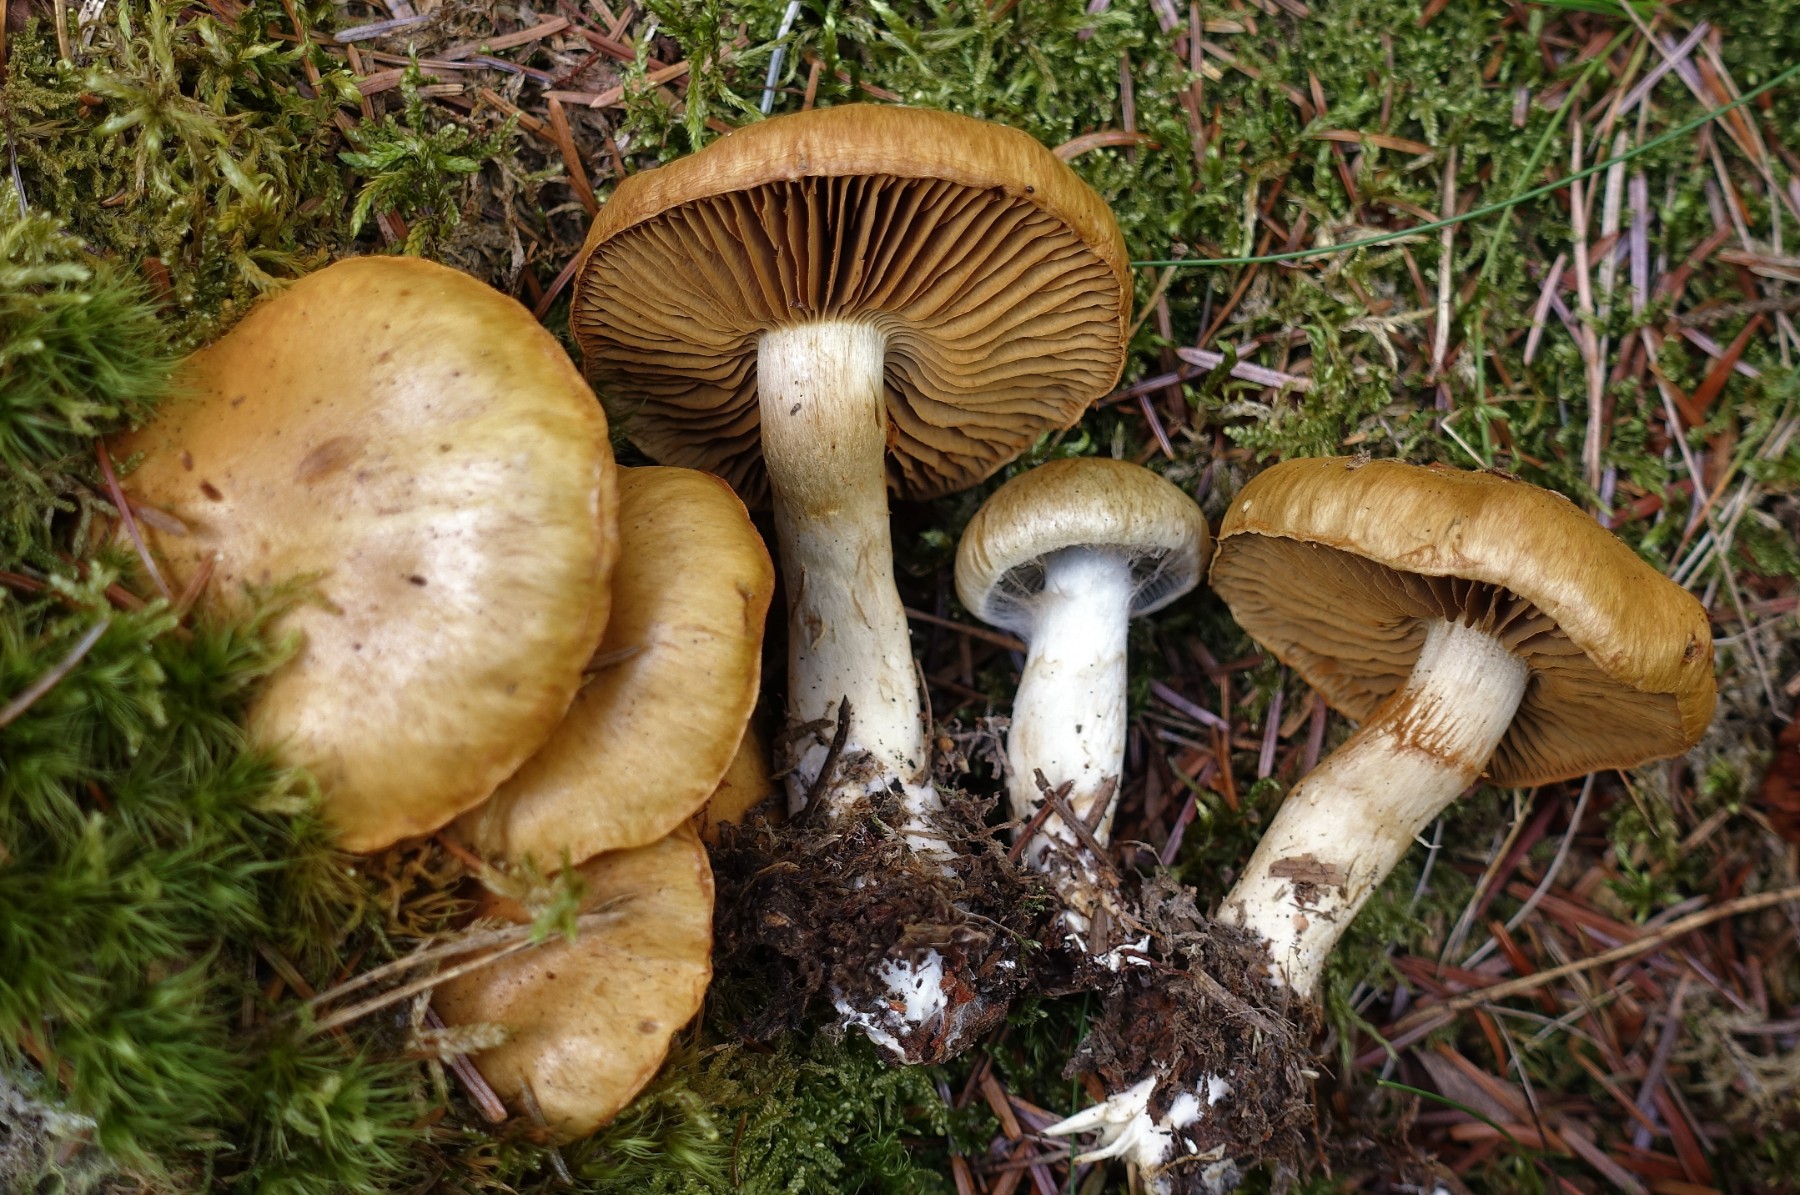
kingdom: Fungi
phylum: Basidiomycota
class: Agaricomycetes
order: Agaricales
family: Cortinariaceae
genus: Cortinarius
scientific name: Cortinarius subtortus
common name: olivengul slørhat
